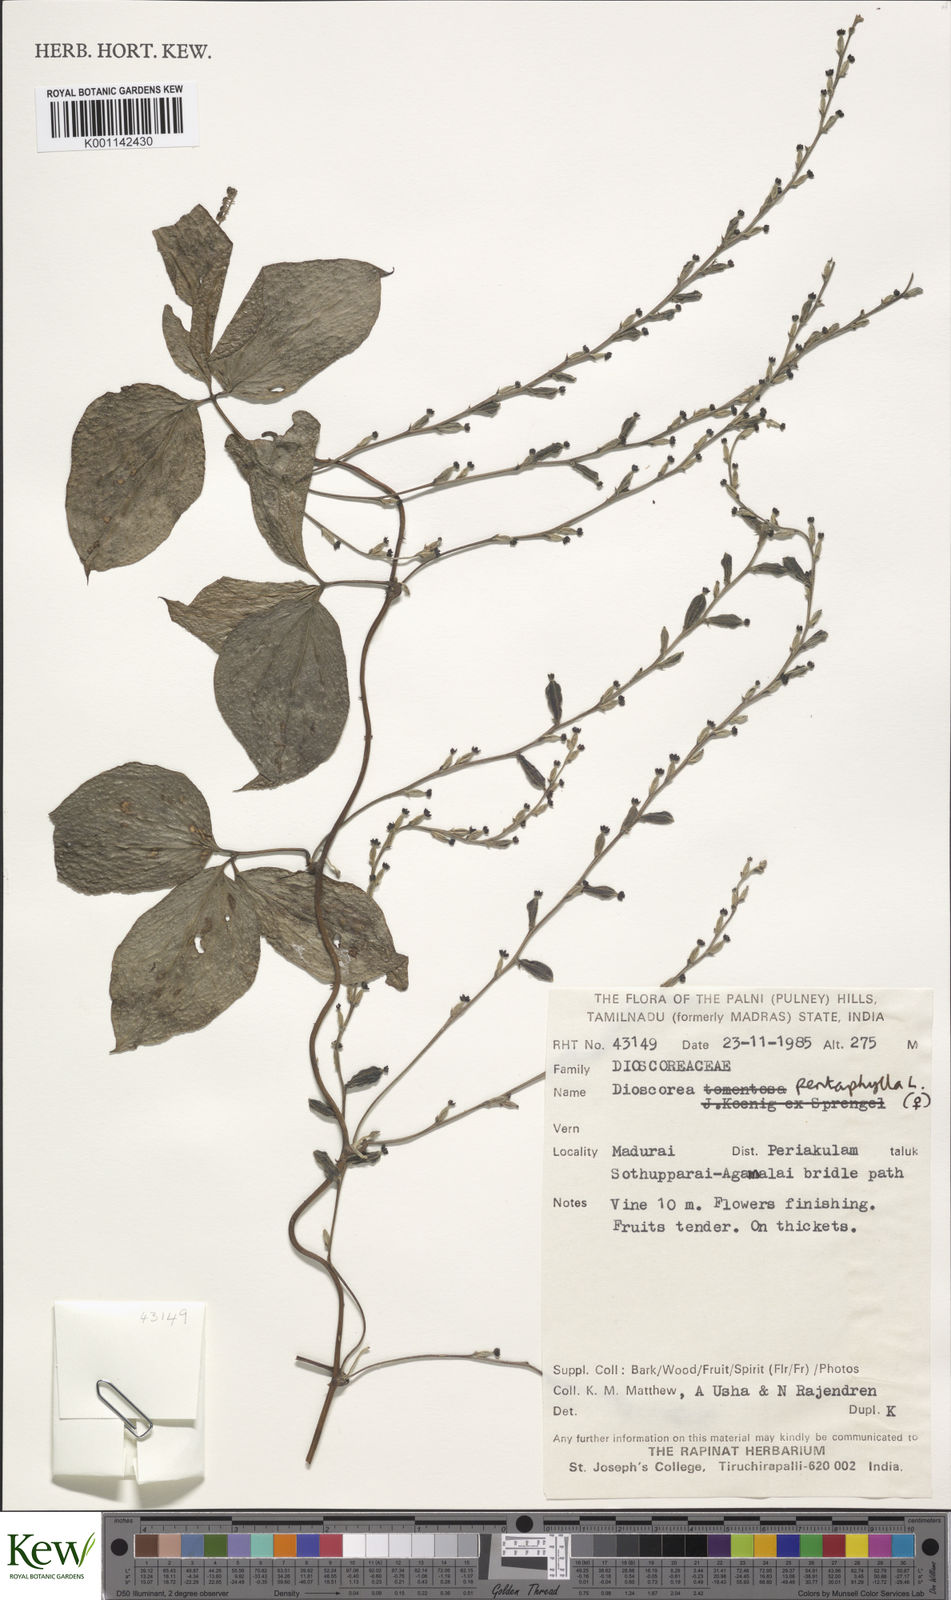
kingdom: Plantae
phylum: Tracheophyta
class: Liliopsida
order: Dioscoreales
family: Dioscoreaceae
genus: Dioscorea
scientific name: Dioscorea pentaphylla
